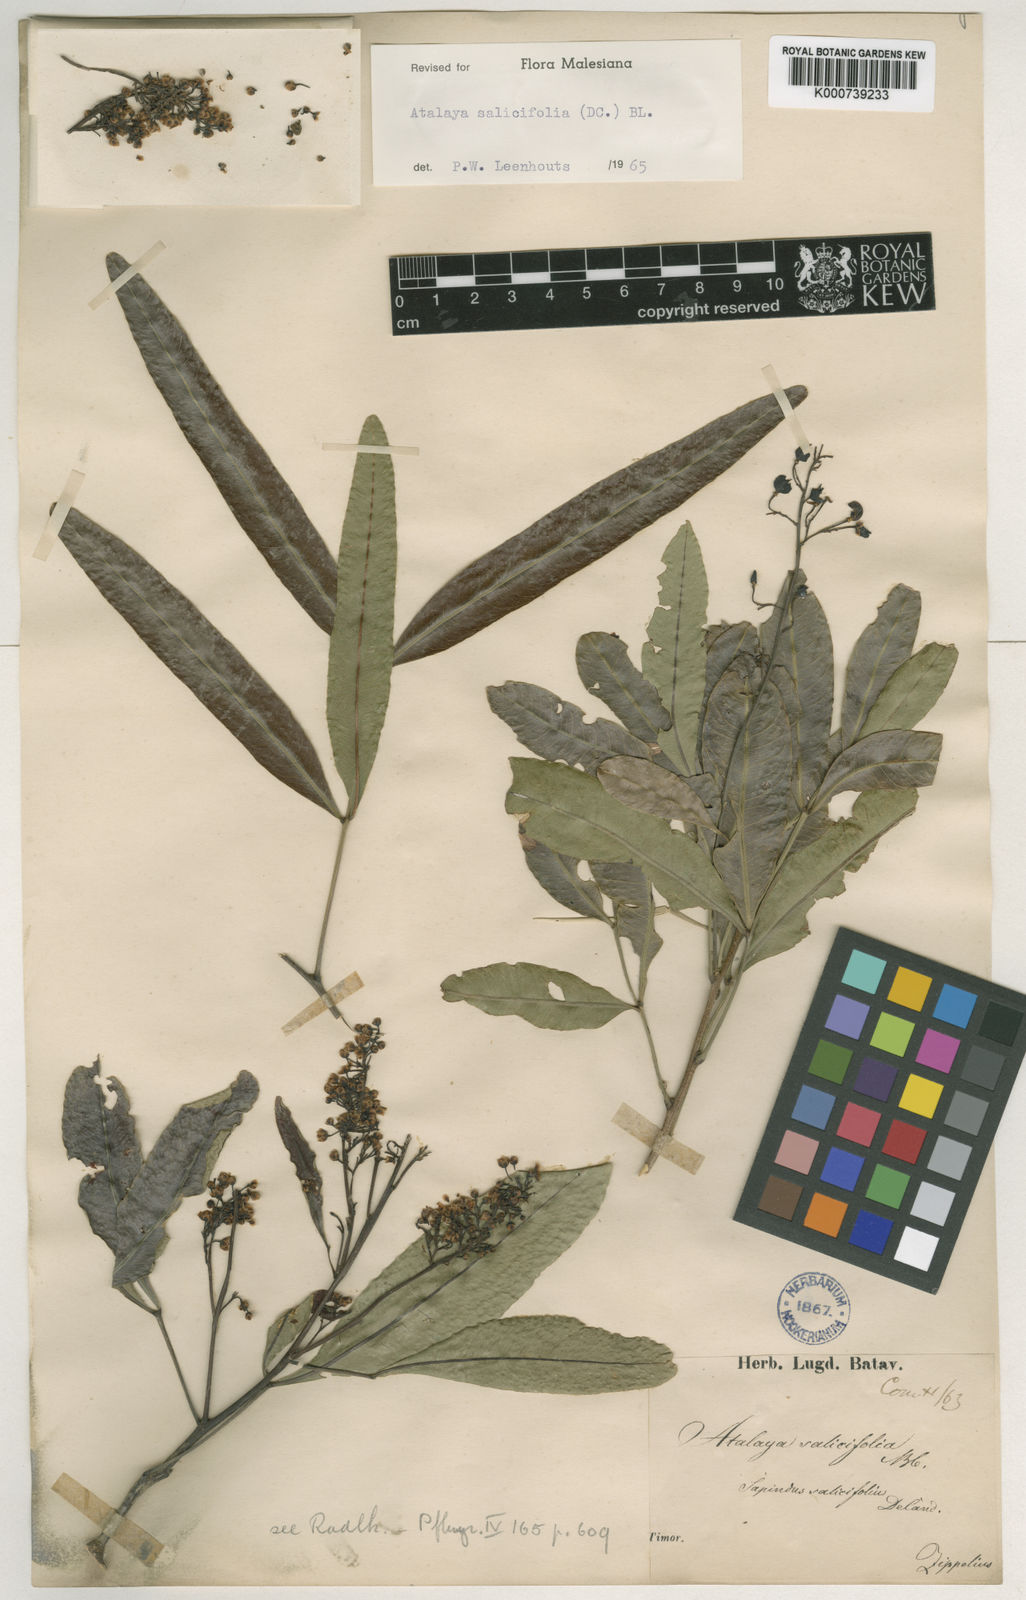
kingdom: Plantae
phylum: Tracheophyta
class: Magnoliopsida
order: Sapindales
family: Sapindaceae
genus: Atalaya
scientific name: Atalaya salicifolia
